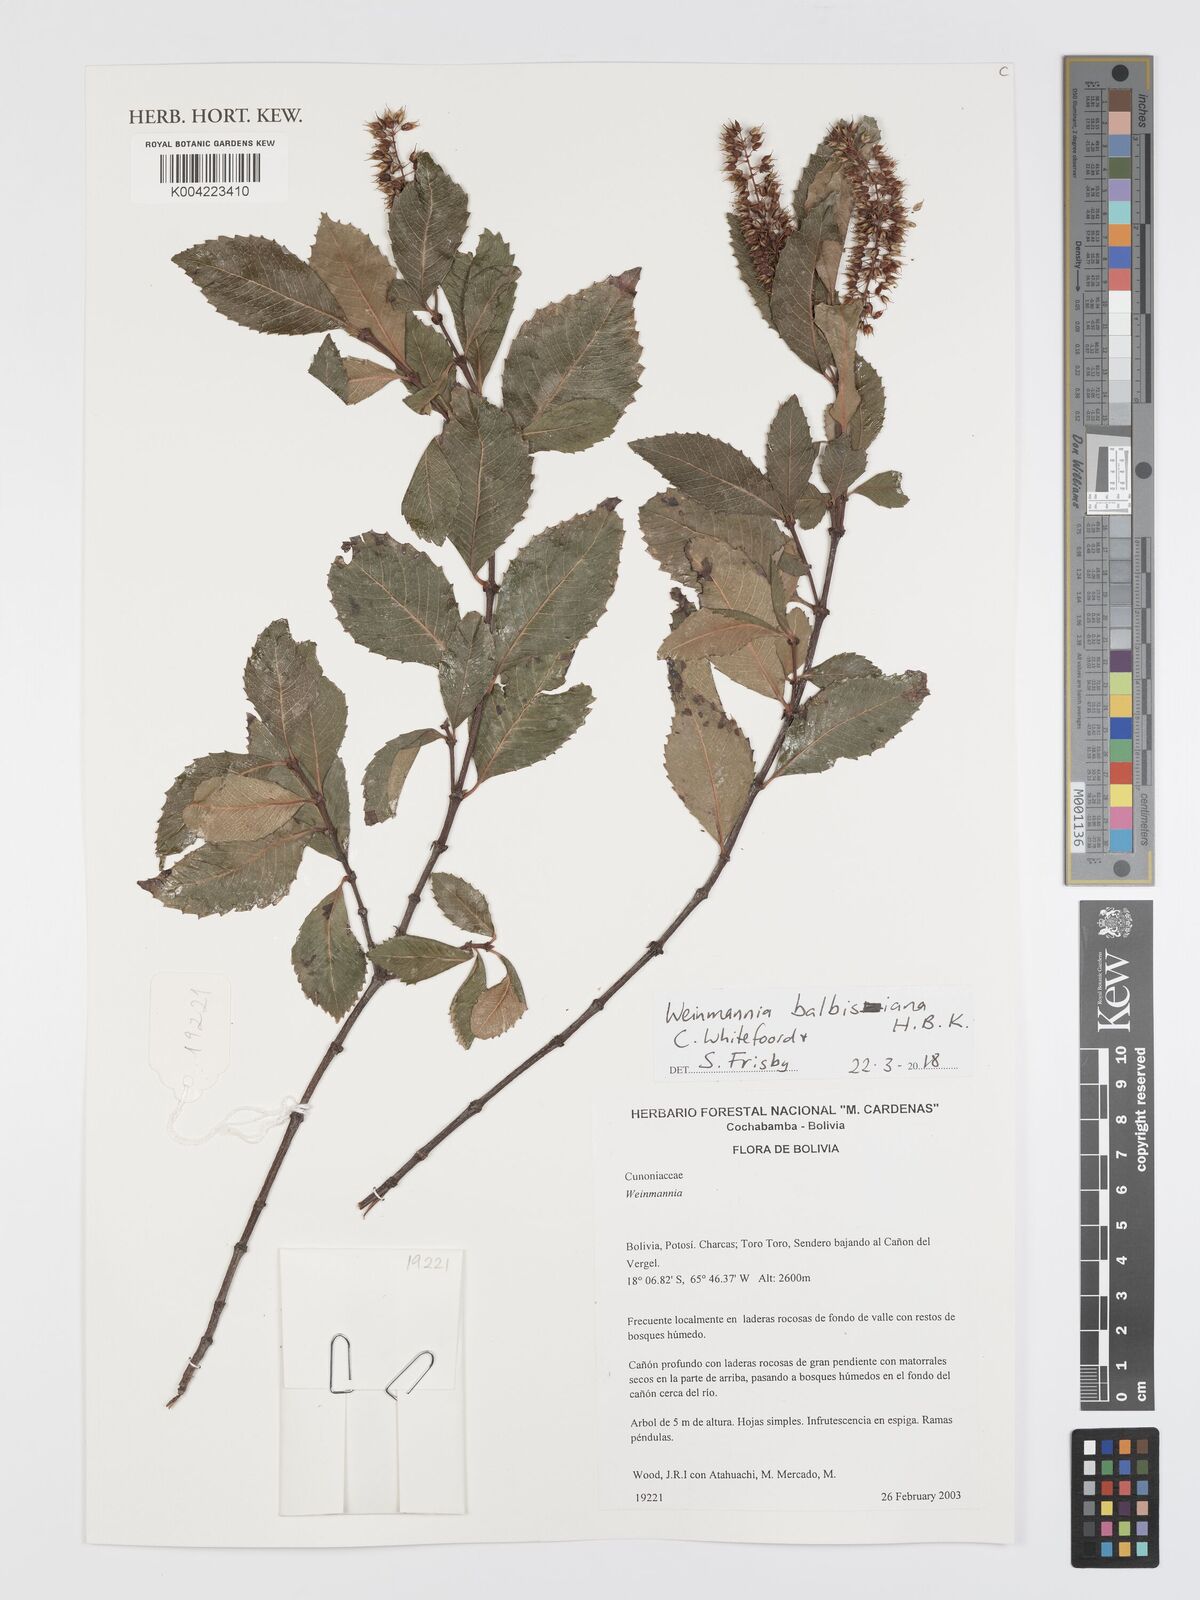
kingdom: Plantae
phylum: Tracheophyta
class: Magnoliopsida
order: Oxalidales
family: Cunoniaceae
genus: Weinmannia
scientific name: Weinmannia balbisana
